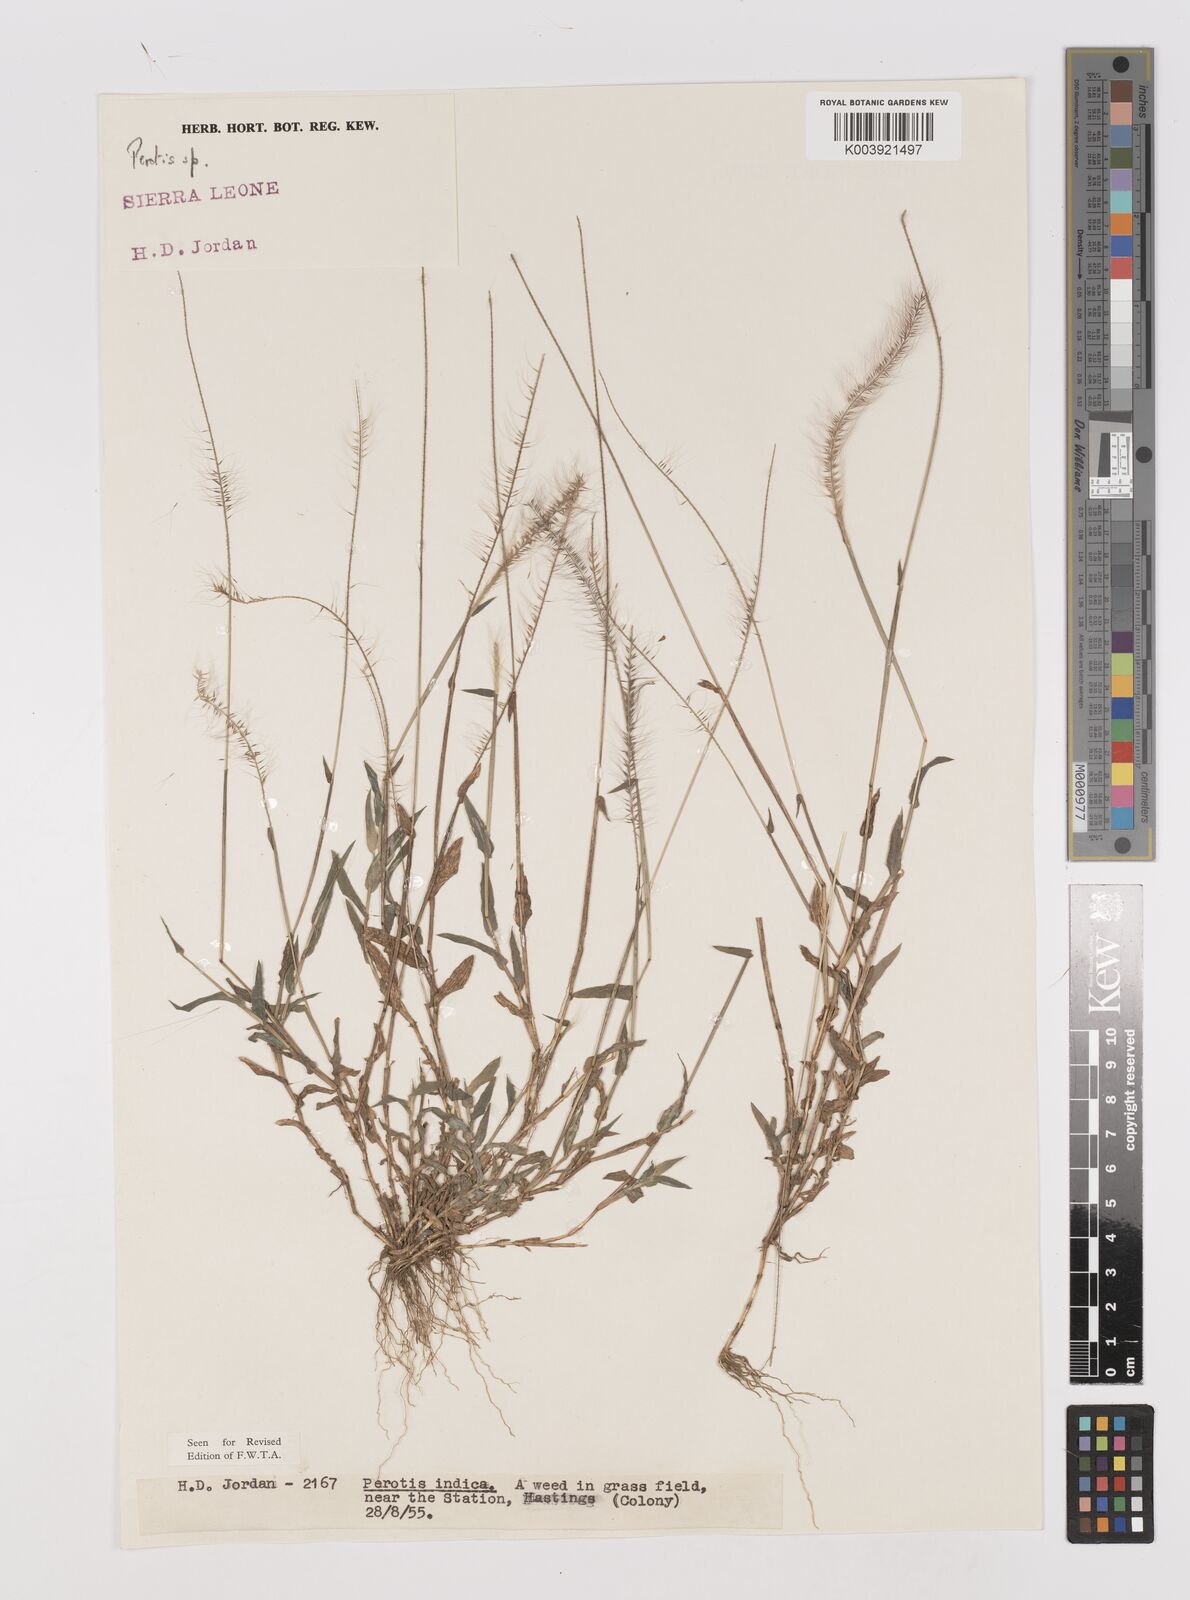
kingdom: Plantae
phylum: Tracheophyta
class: Liliopsida
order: Poales
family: Poaceae
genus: Perotis
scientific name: Perotis indica
